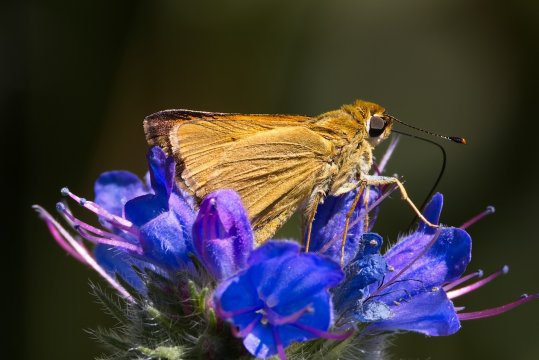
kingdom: Animalia
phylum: Arthropoda
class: Insecta
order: Lepidoptera
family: Hesperiidae
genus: Atrytone
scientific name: Atrytone delaware
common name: Delaware Skipper
